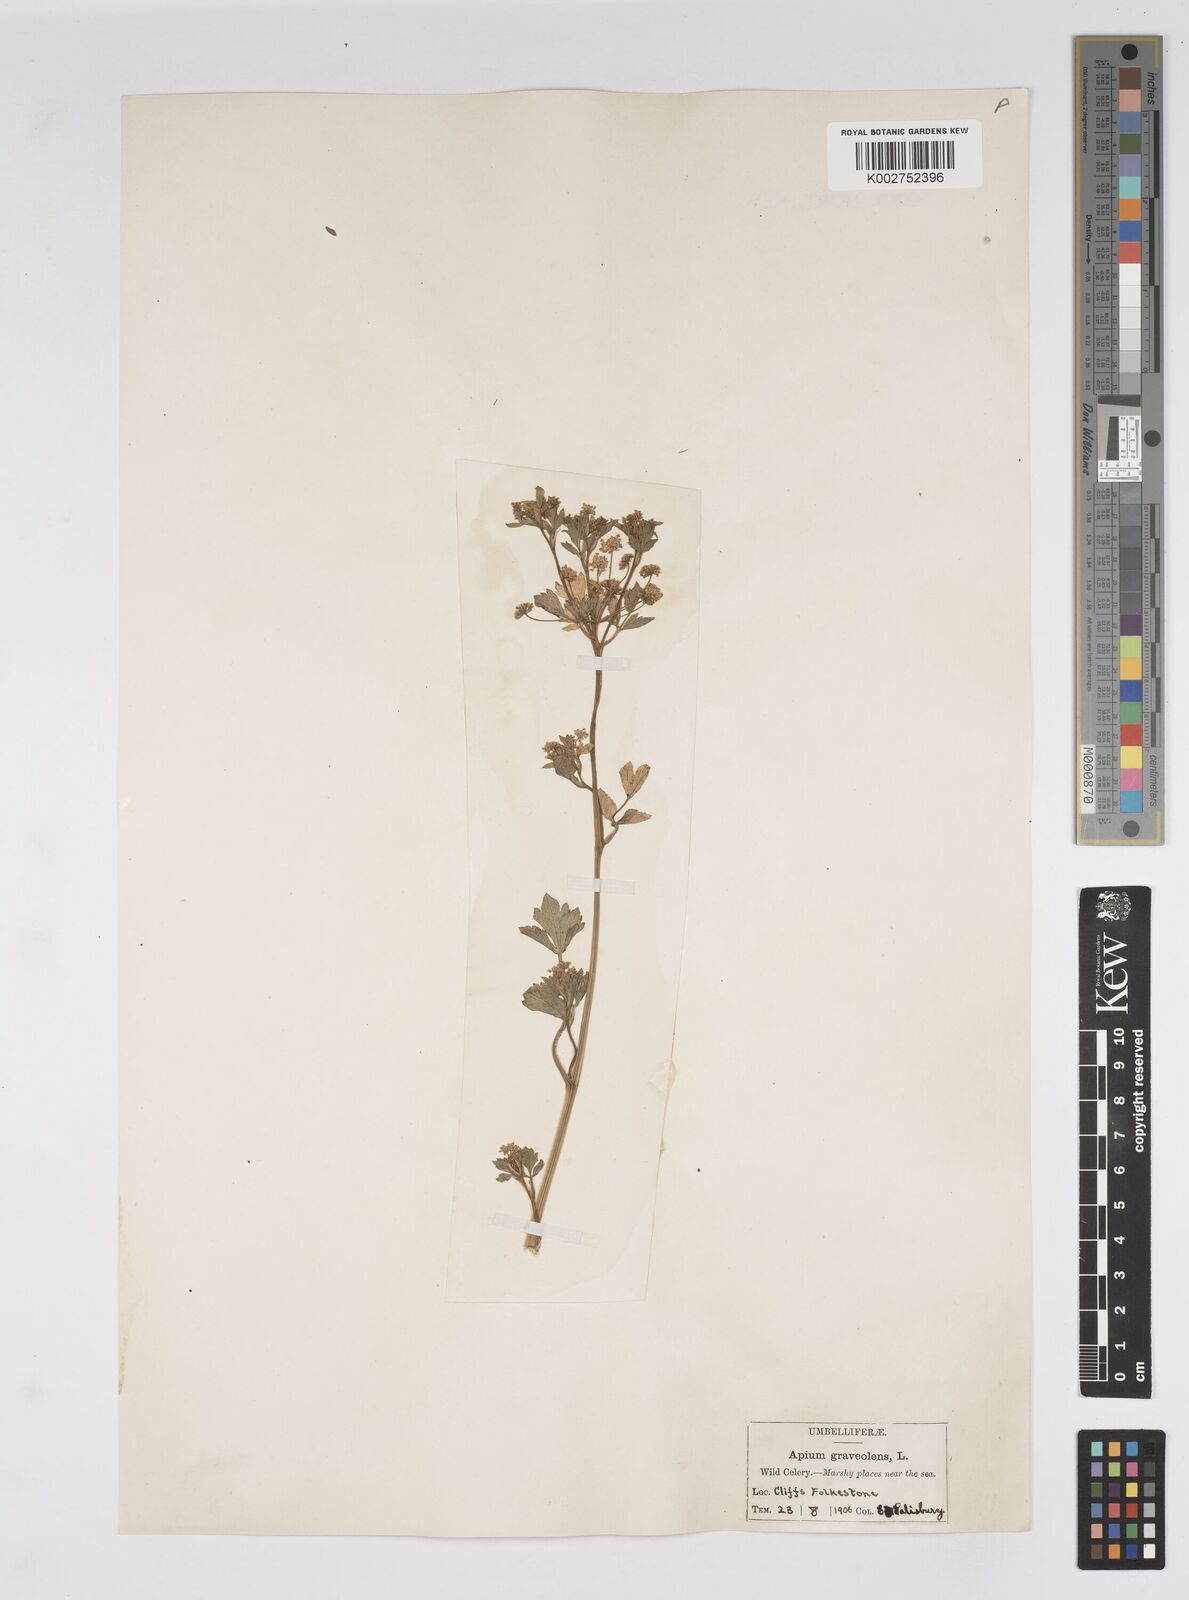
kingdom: Plantae
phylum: Tracheophyta
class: Magnoliopsida
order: Apiales
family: Apiaceae
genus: Apium
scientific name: Apium graveolens
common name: Wild celery
